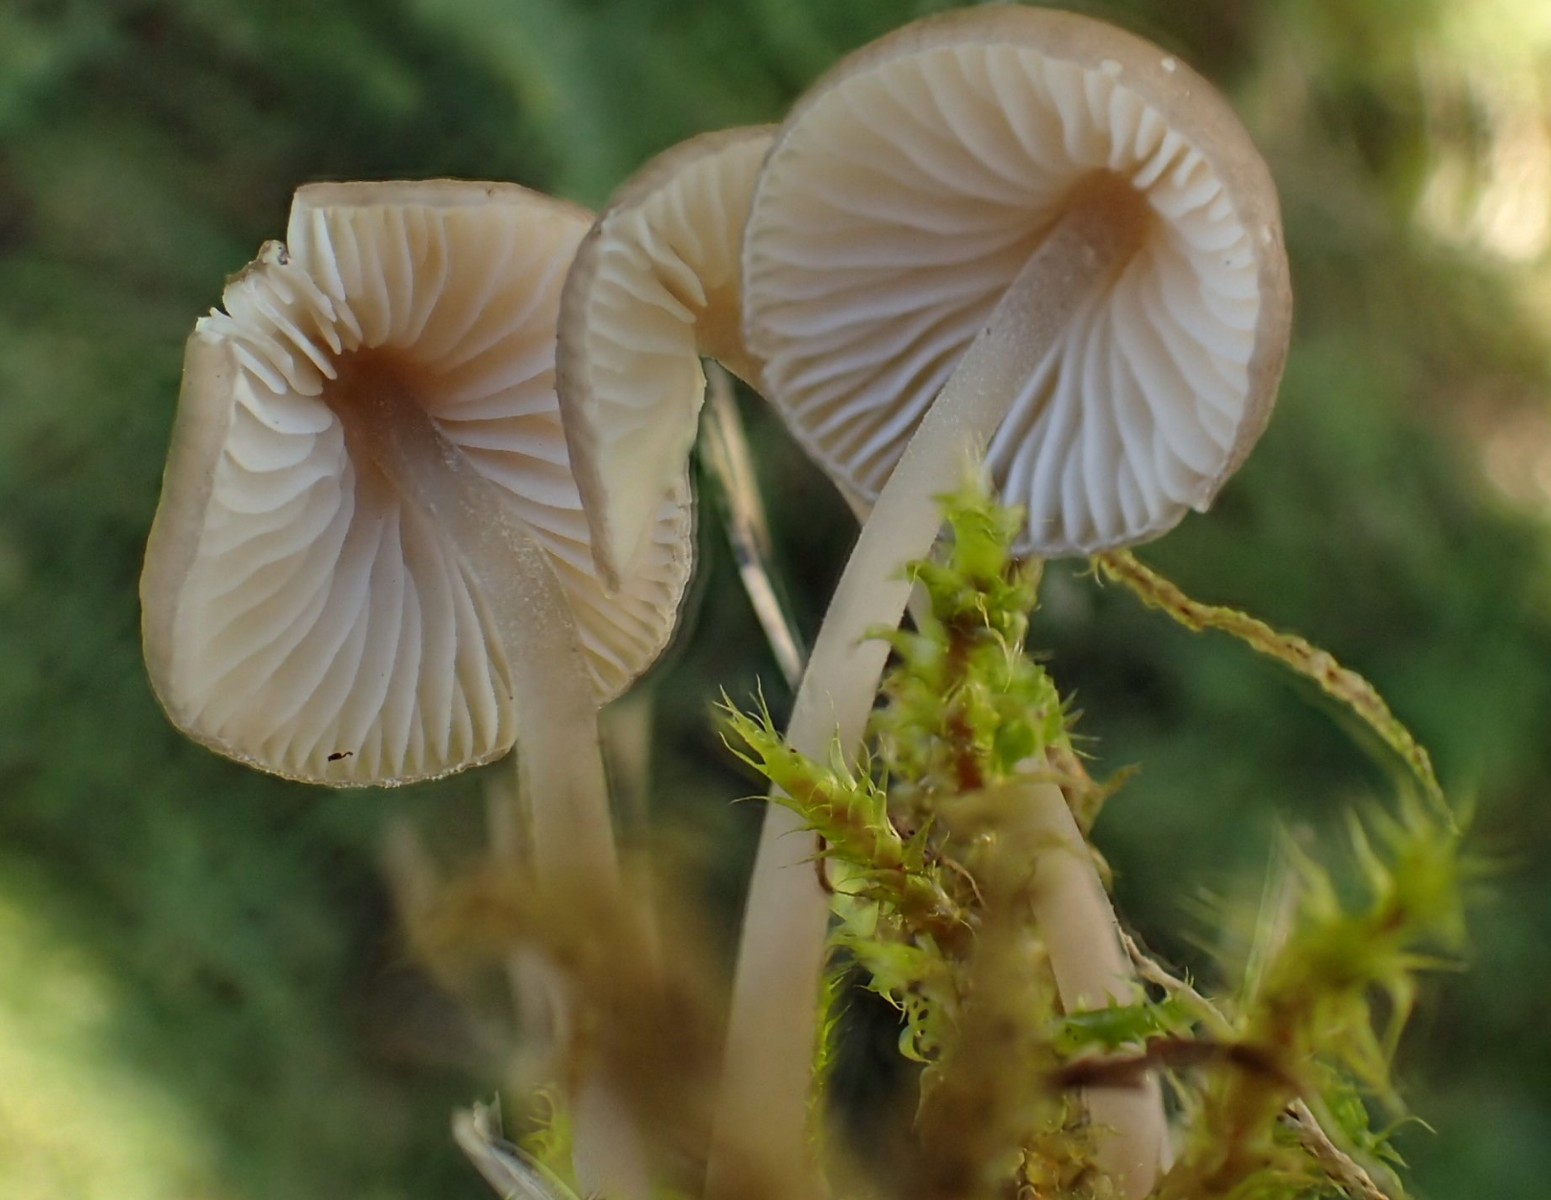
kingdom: Fungi
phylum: Basidiomycota
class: Agaricomycetes
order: Agaricales
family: Tricholomataceae
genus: Mycenella
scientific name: Mycenella bryophila
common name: mos-dughat
